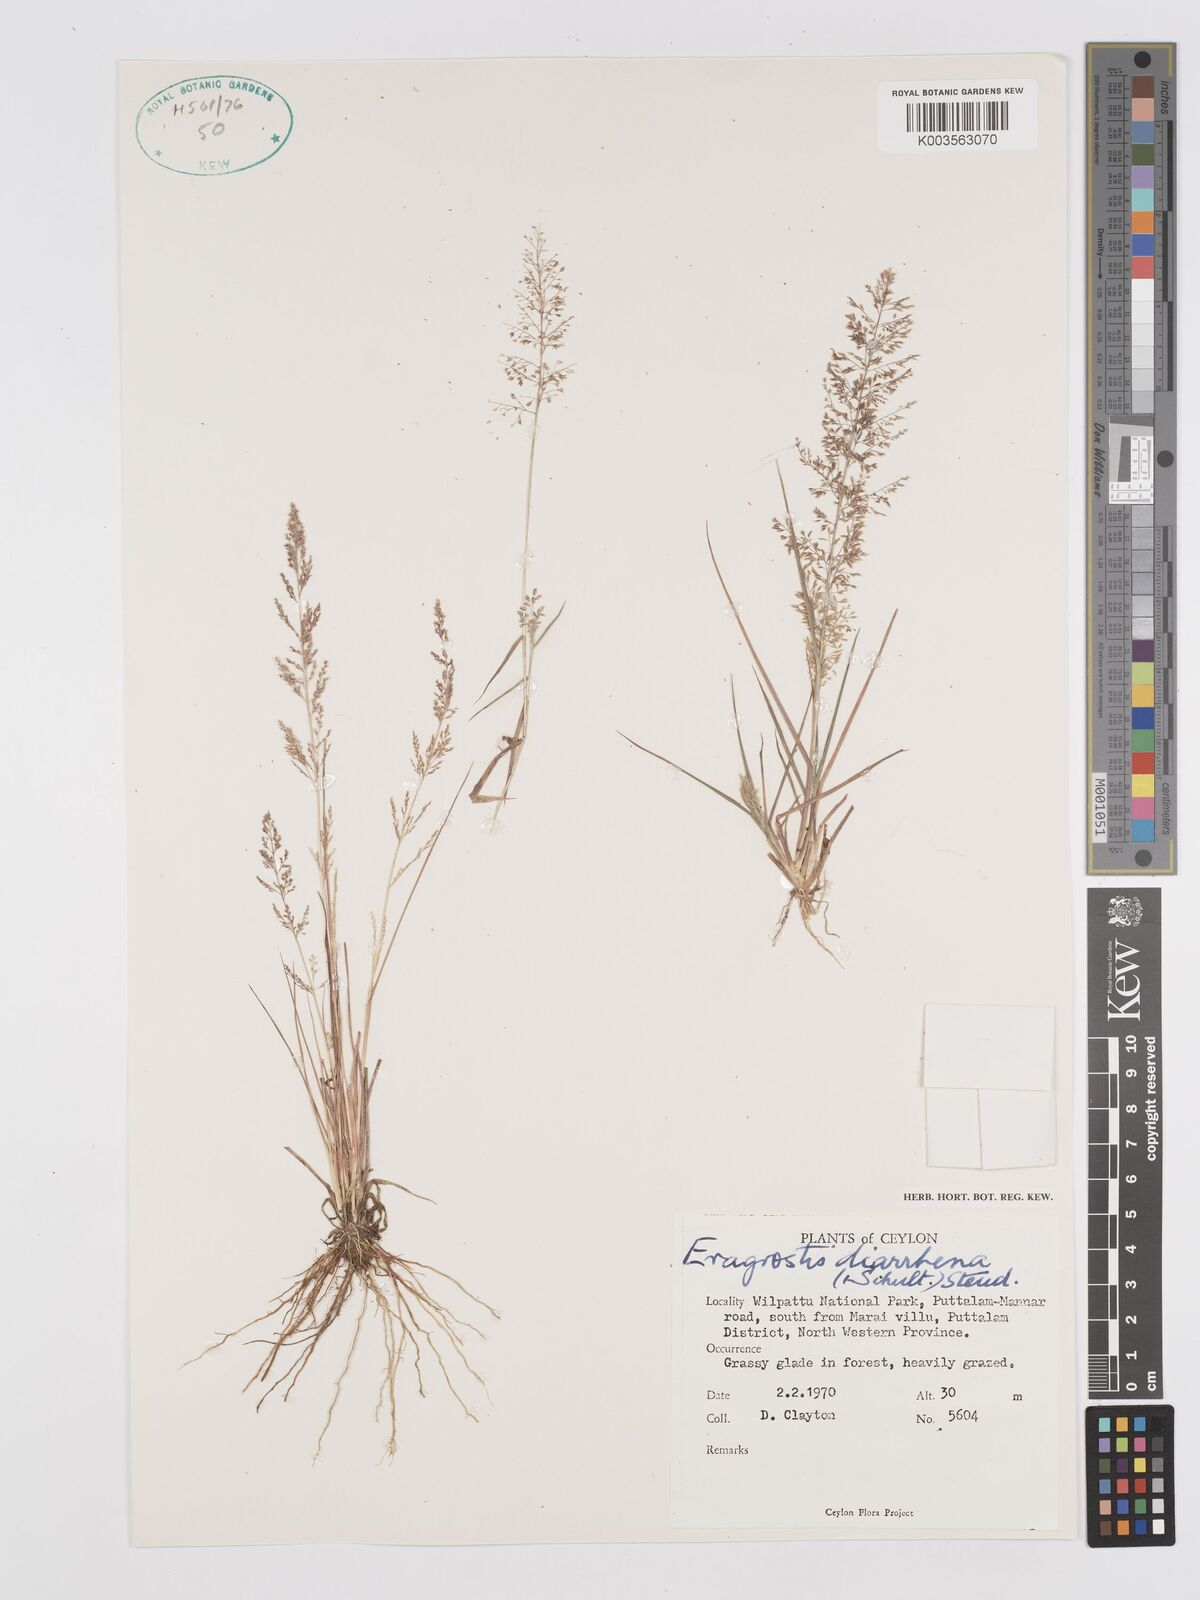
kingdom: Plantae
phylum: Tracheophyta
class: Liliopsida
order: Poales
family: Poaceae
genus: Eragrostis
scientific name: Eragrostis japonica
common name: Pond lovegrass
